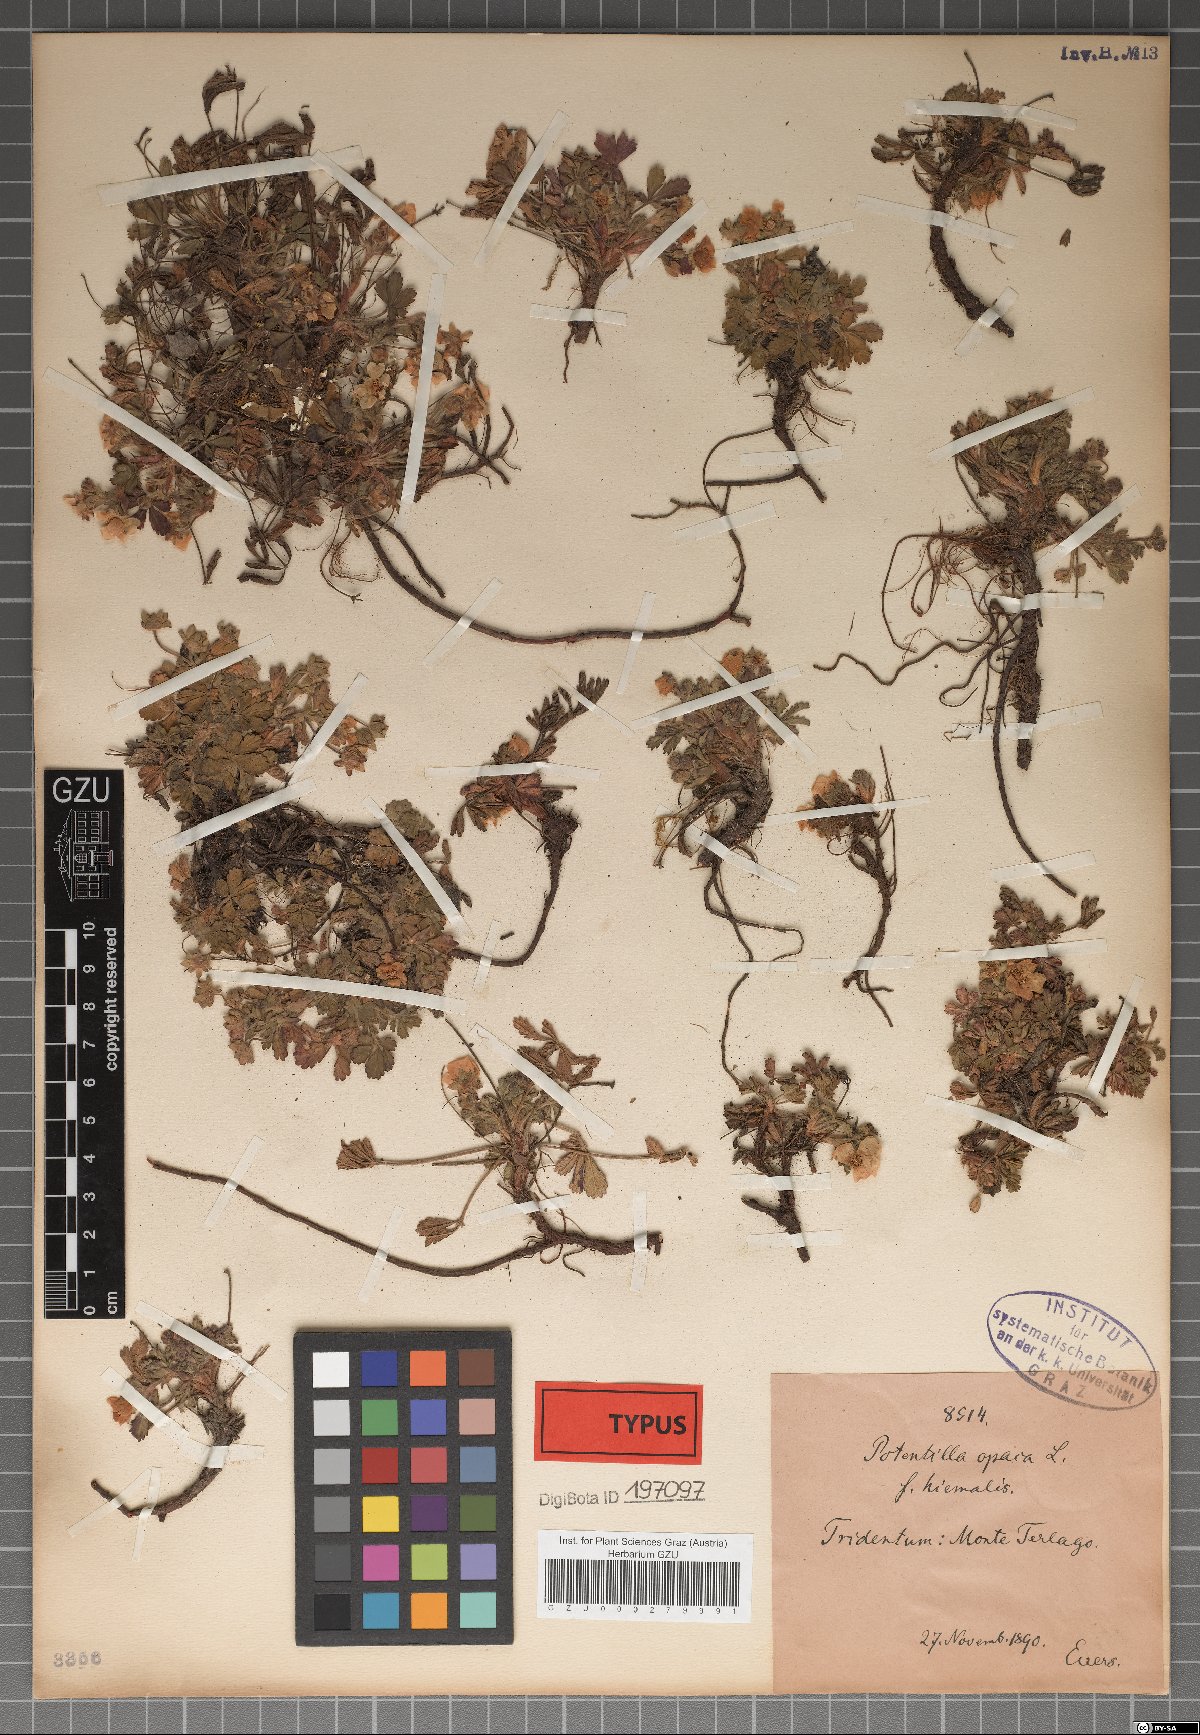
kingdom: Plantae
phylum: Tracheophyta
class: Magnoliopsida
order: Rosales
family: Rosaceae
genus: Potentilla
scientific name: Potentilla
